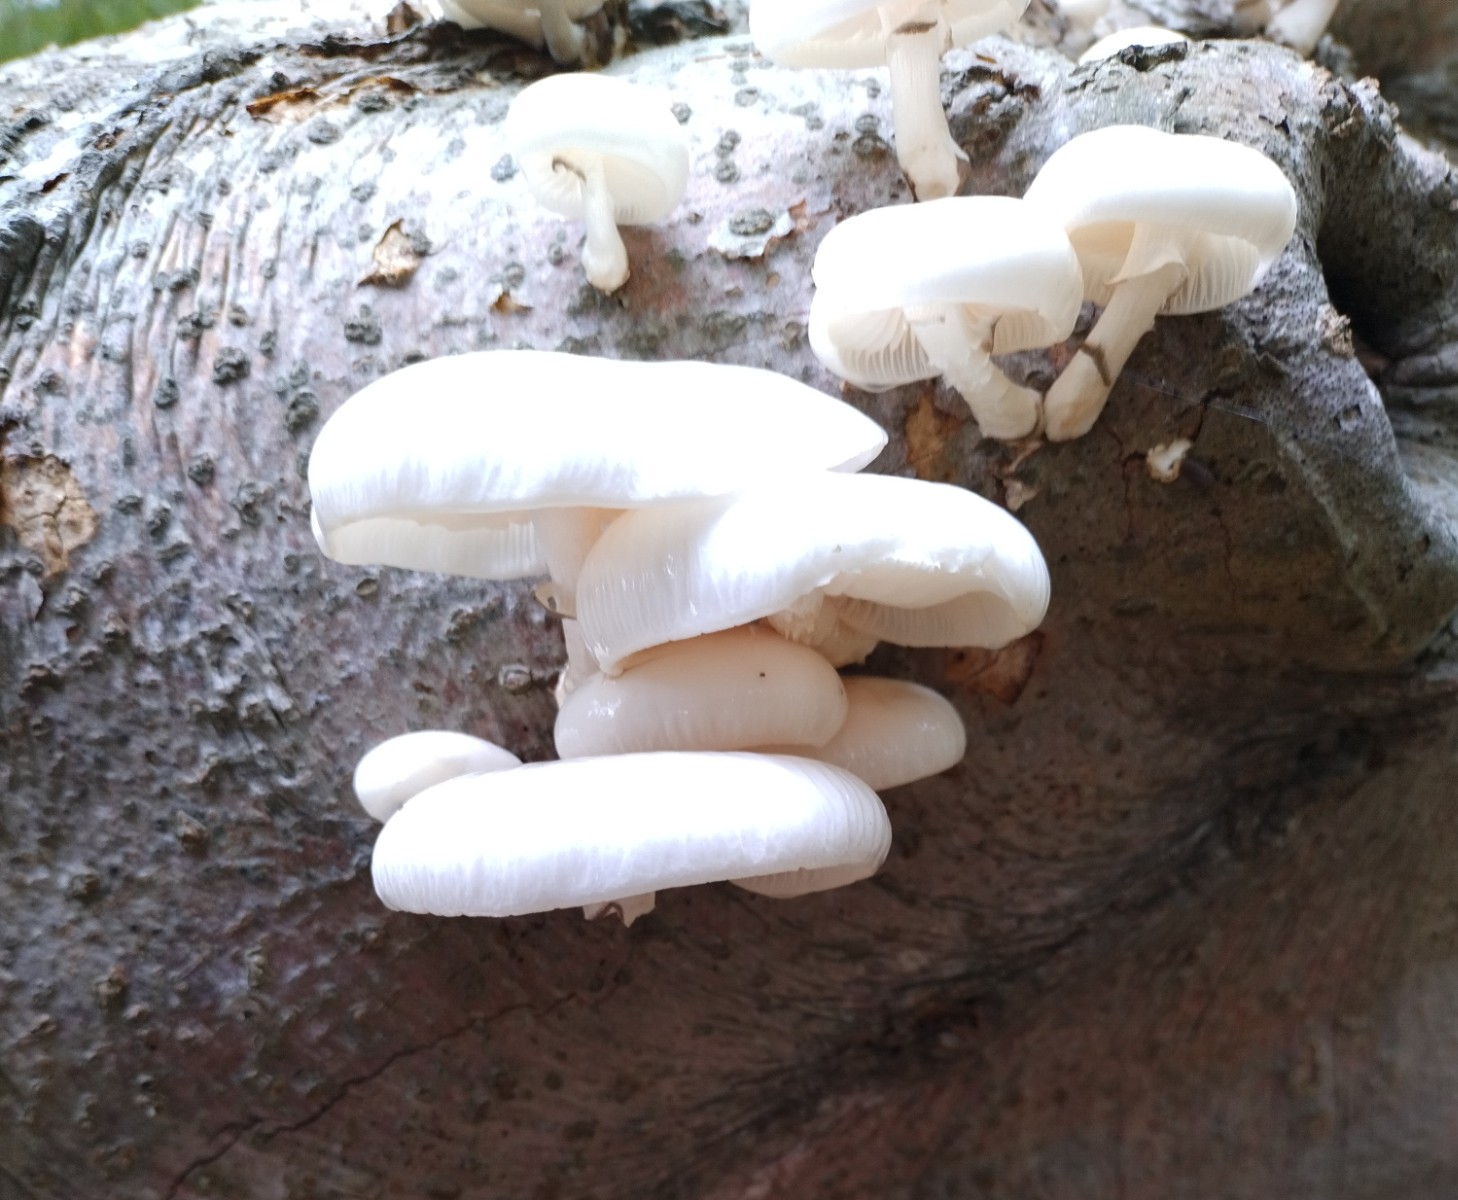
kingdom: Fungi
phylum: Basidiomycota
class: Agaricomycetes
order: Agaricales
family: Physalacriaceae
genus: Mucidula
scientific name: Mucidula mucida
